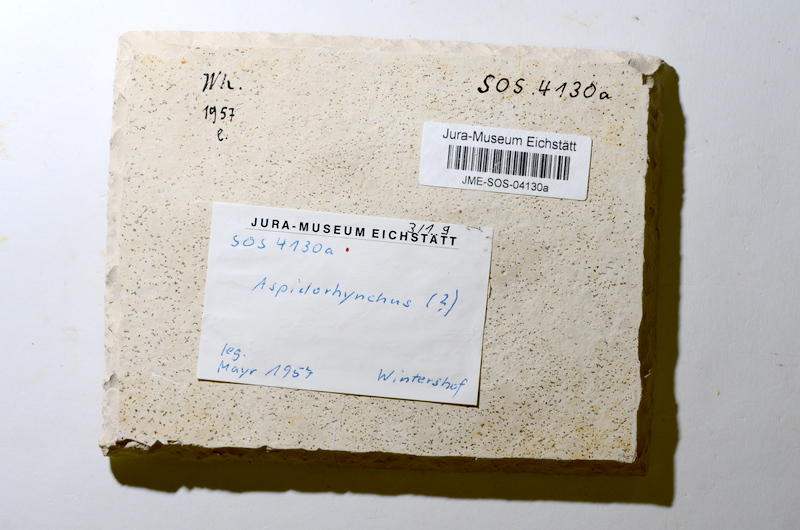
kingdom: Animalia
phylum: Chordata
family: Aspidorhynchidae
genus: Aspidorhynchus
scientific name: Aspidorhynchus
